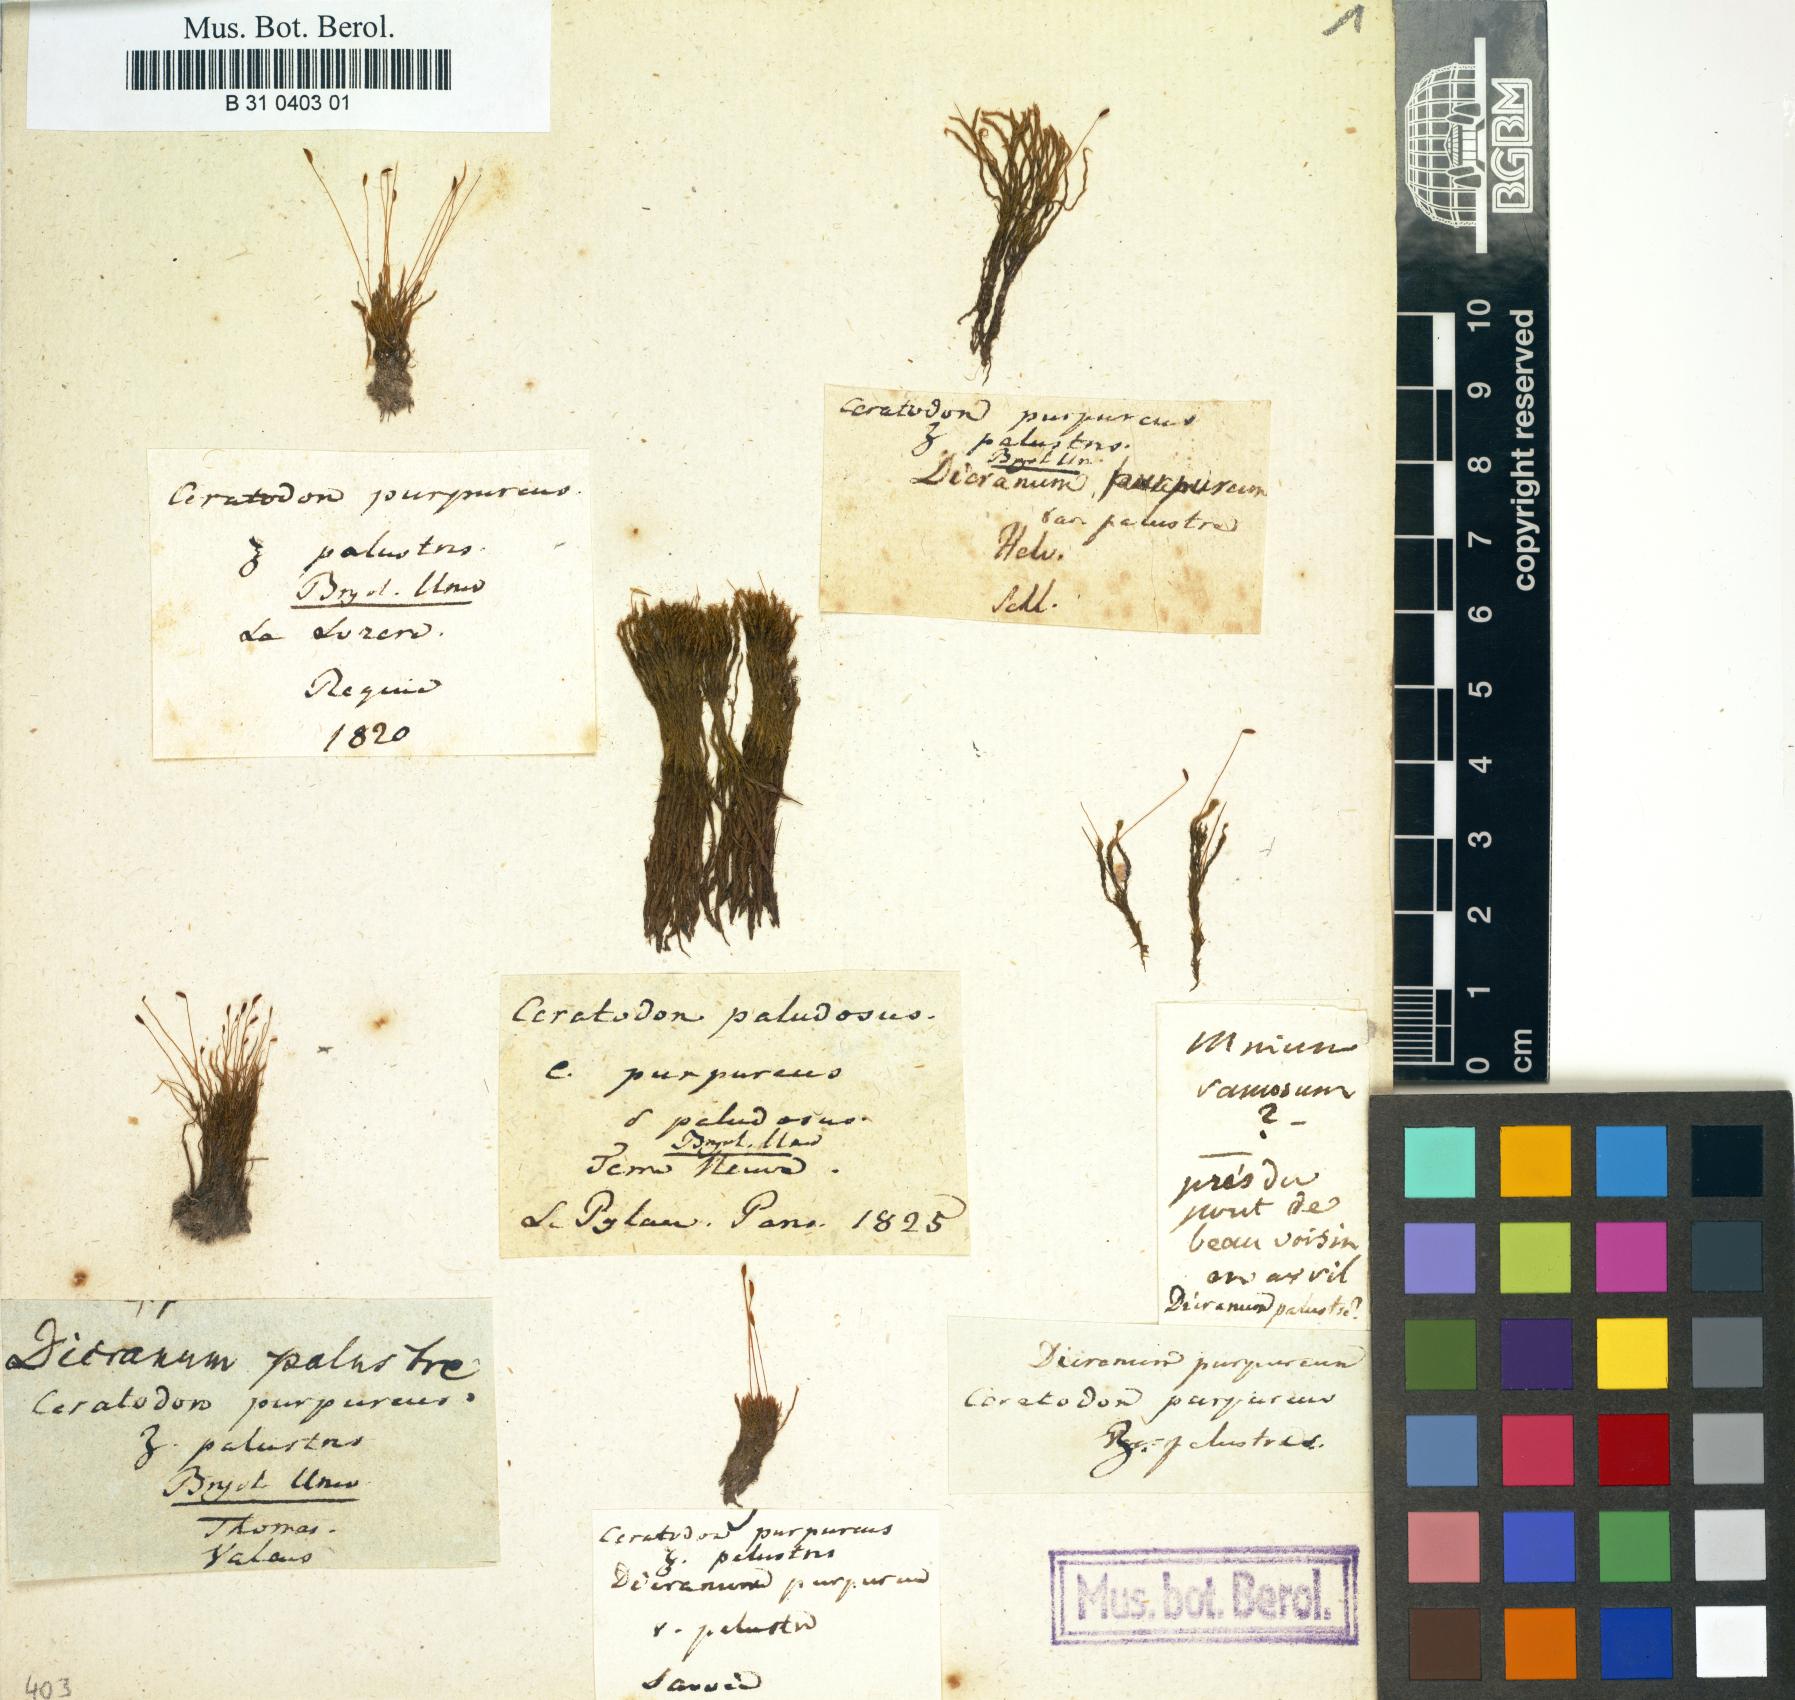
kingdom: Plantae
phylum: Bryophyta
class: Bryopsida
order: Dicranales
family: Ditrichaceae
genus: Ceratodon
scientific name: Ceratodon purpureus
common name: Redshank
